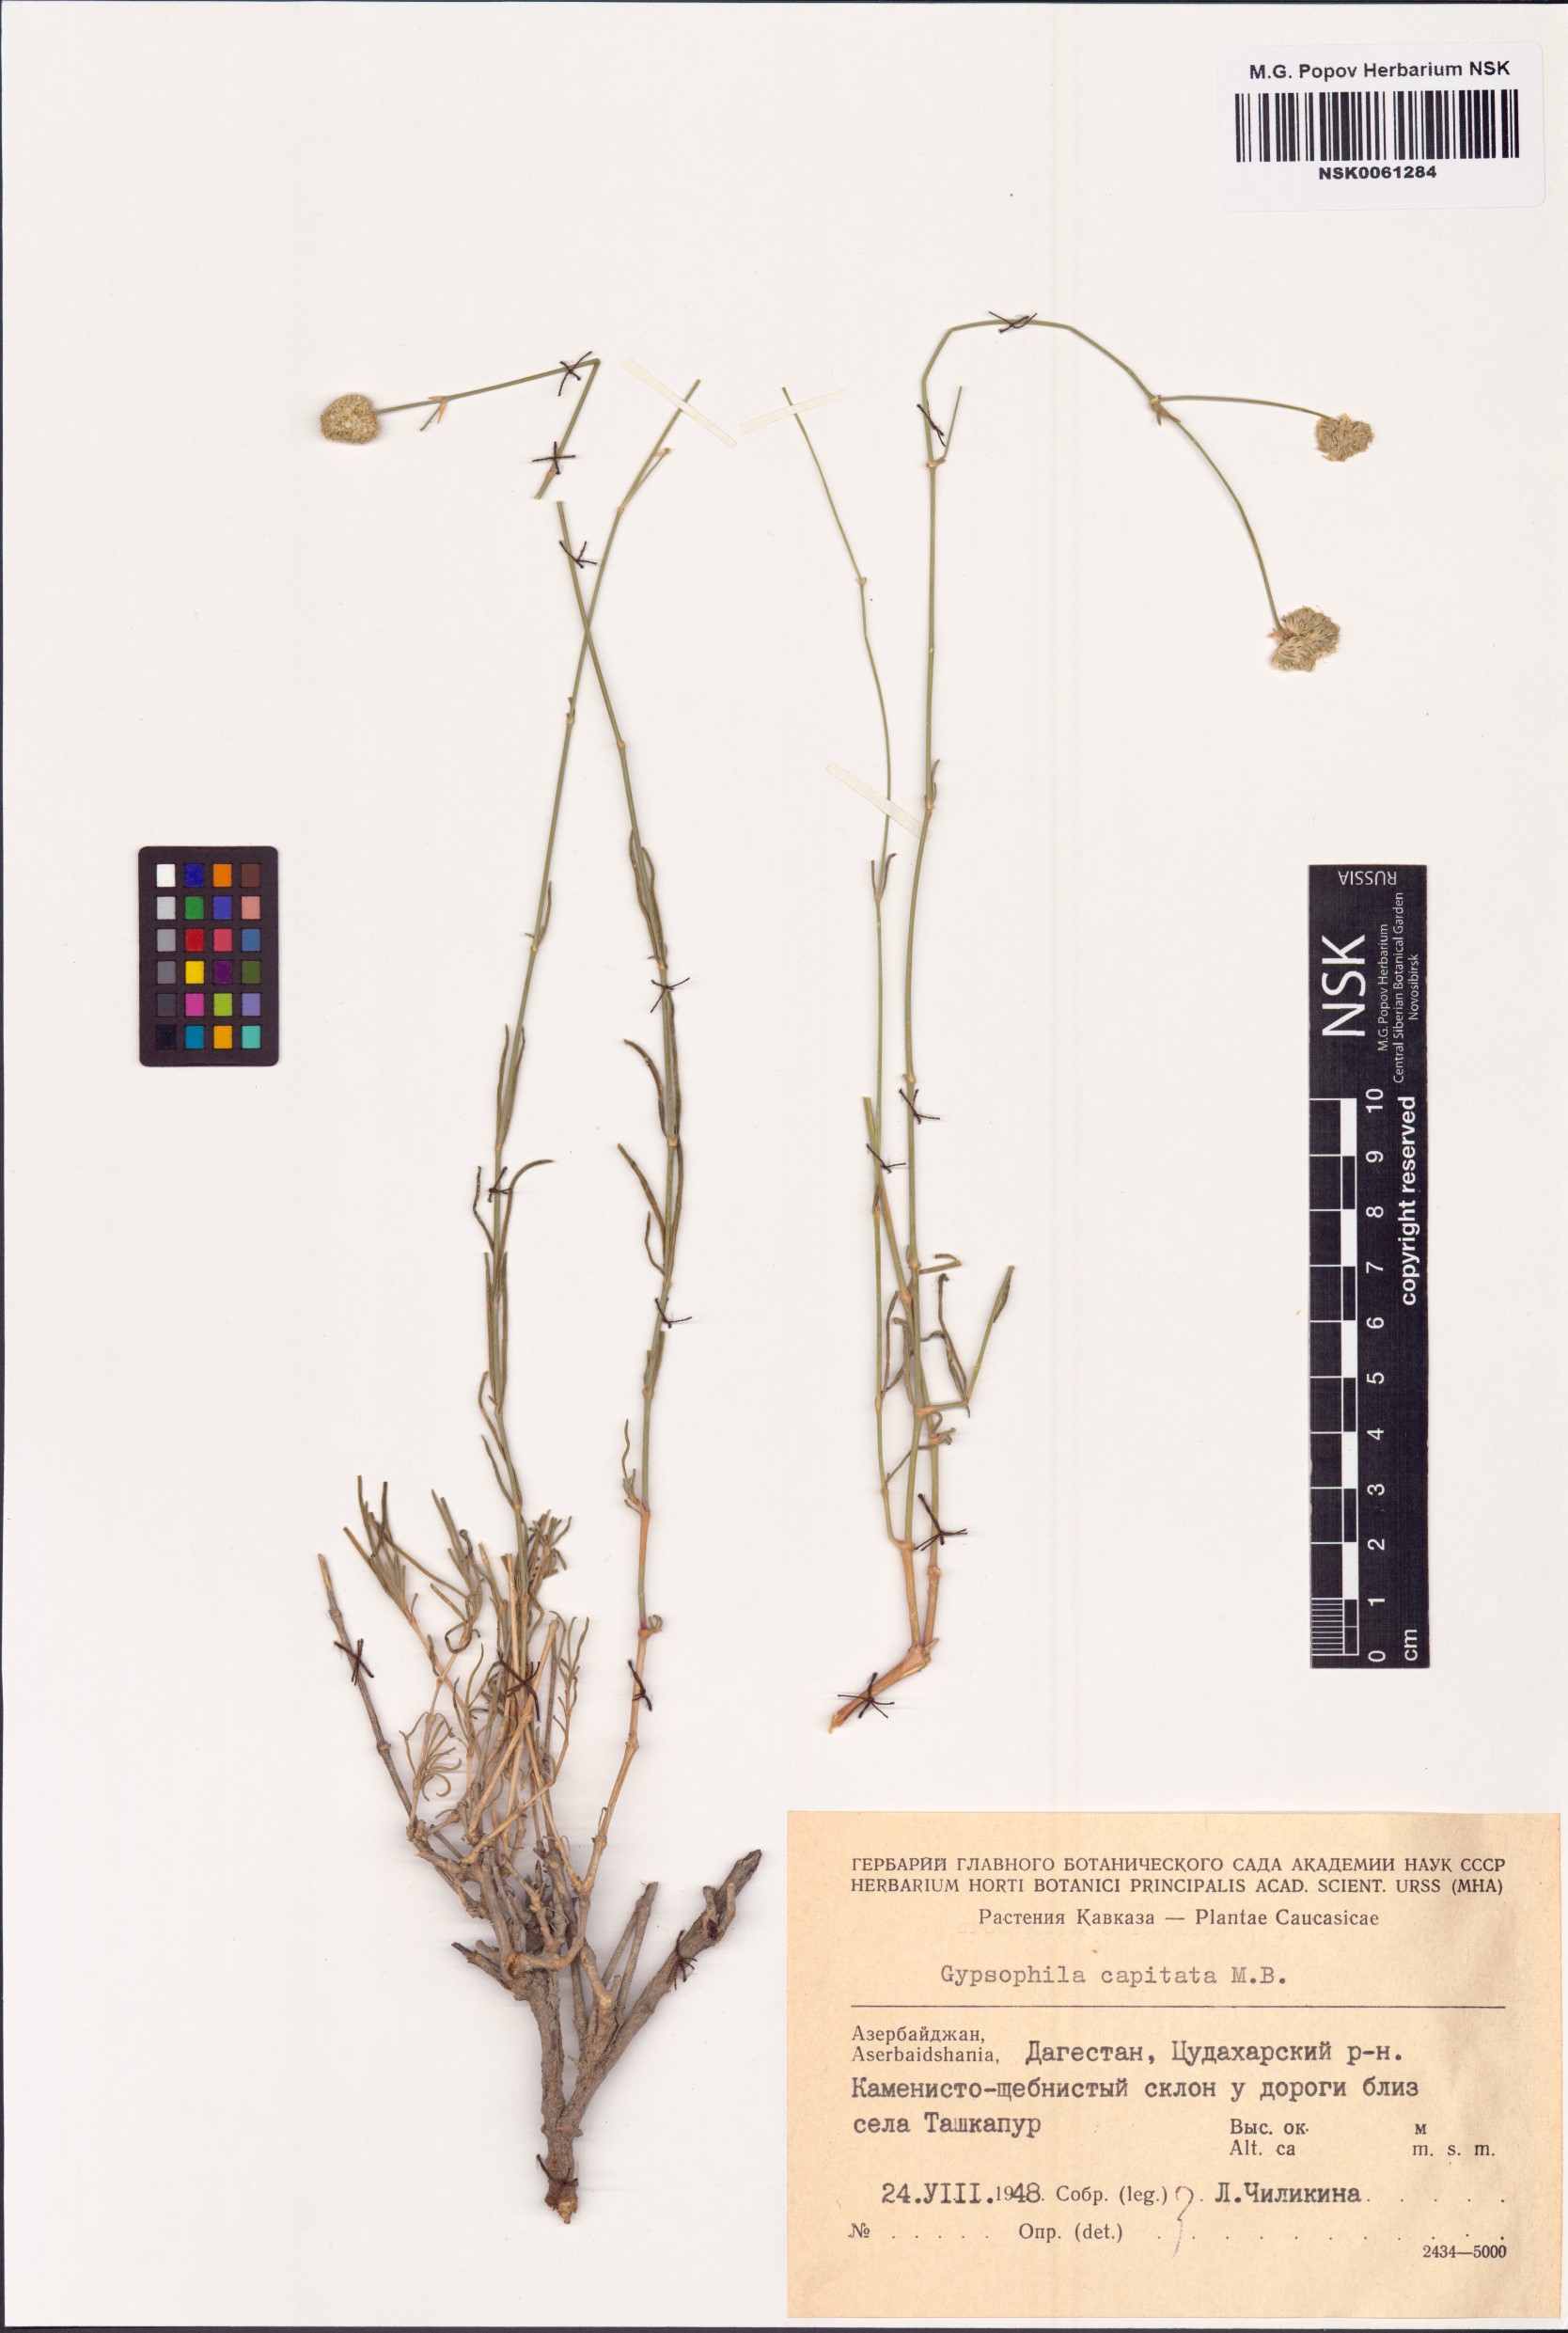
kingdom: Plantae
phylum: Tracheophyta
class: Magnoliopsida
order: Caryophyllales
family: Caryophyllaceae
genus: Gypsophila
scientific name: Gypsophila capitata
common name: Capitate chalk plant
